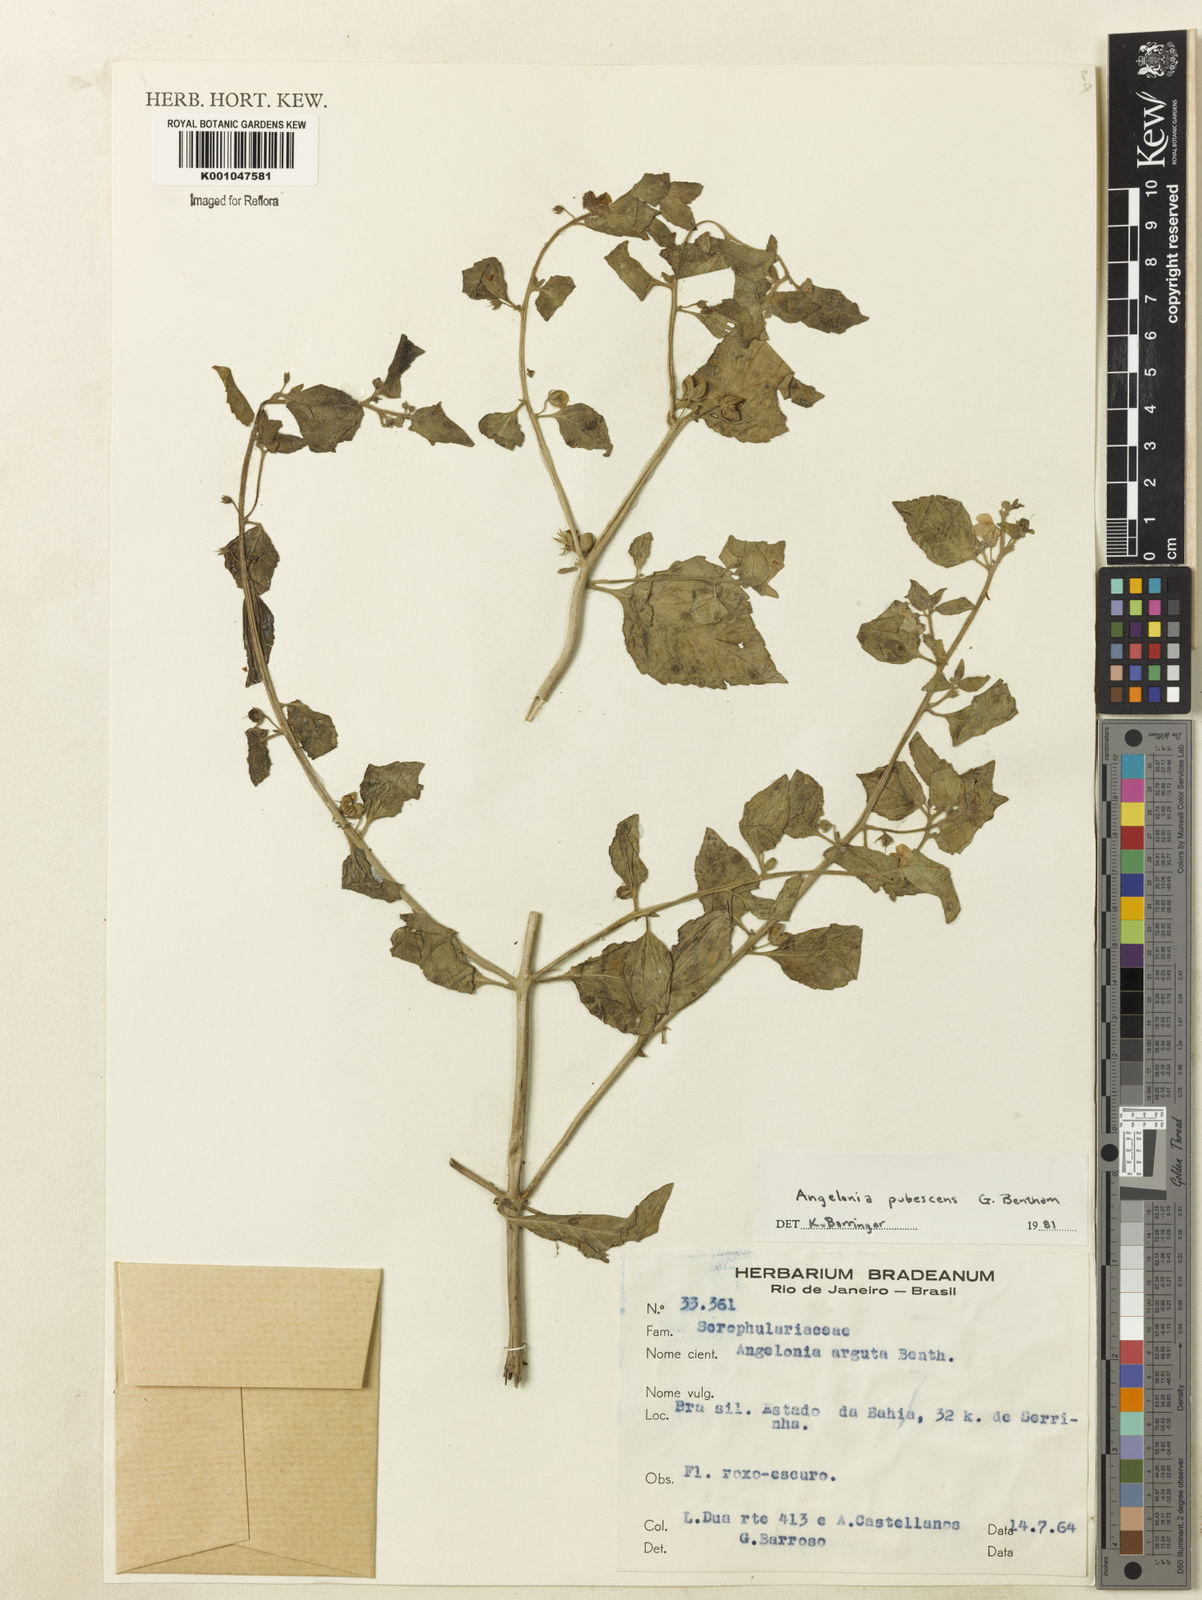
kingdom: Plantae
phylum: Tracheophyta
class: Magnoliopsida
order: Lamiales
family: Plantaginaceae
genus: Angelonia
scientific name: Angelonia pubescens
